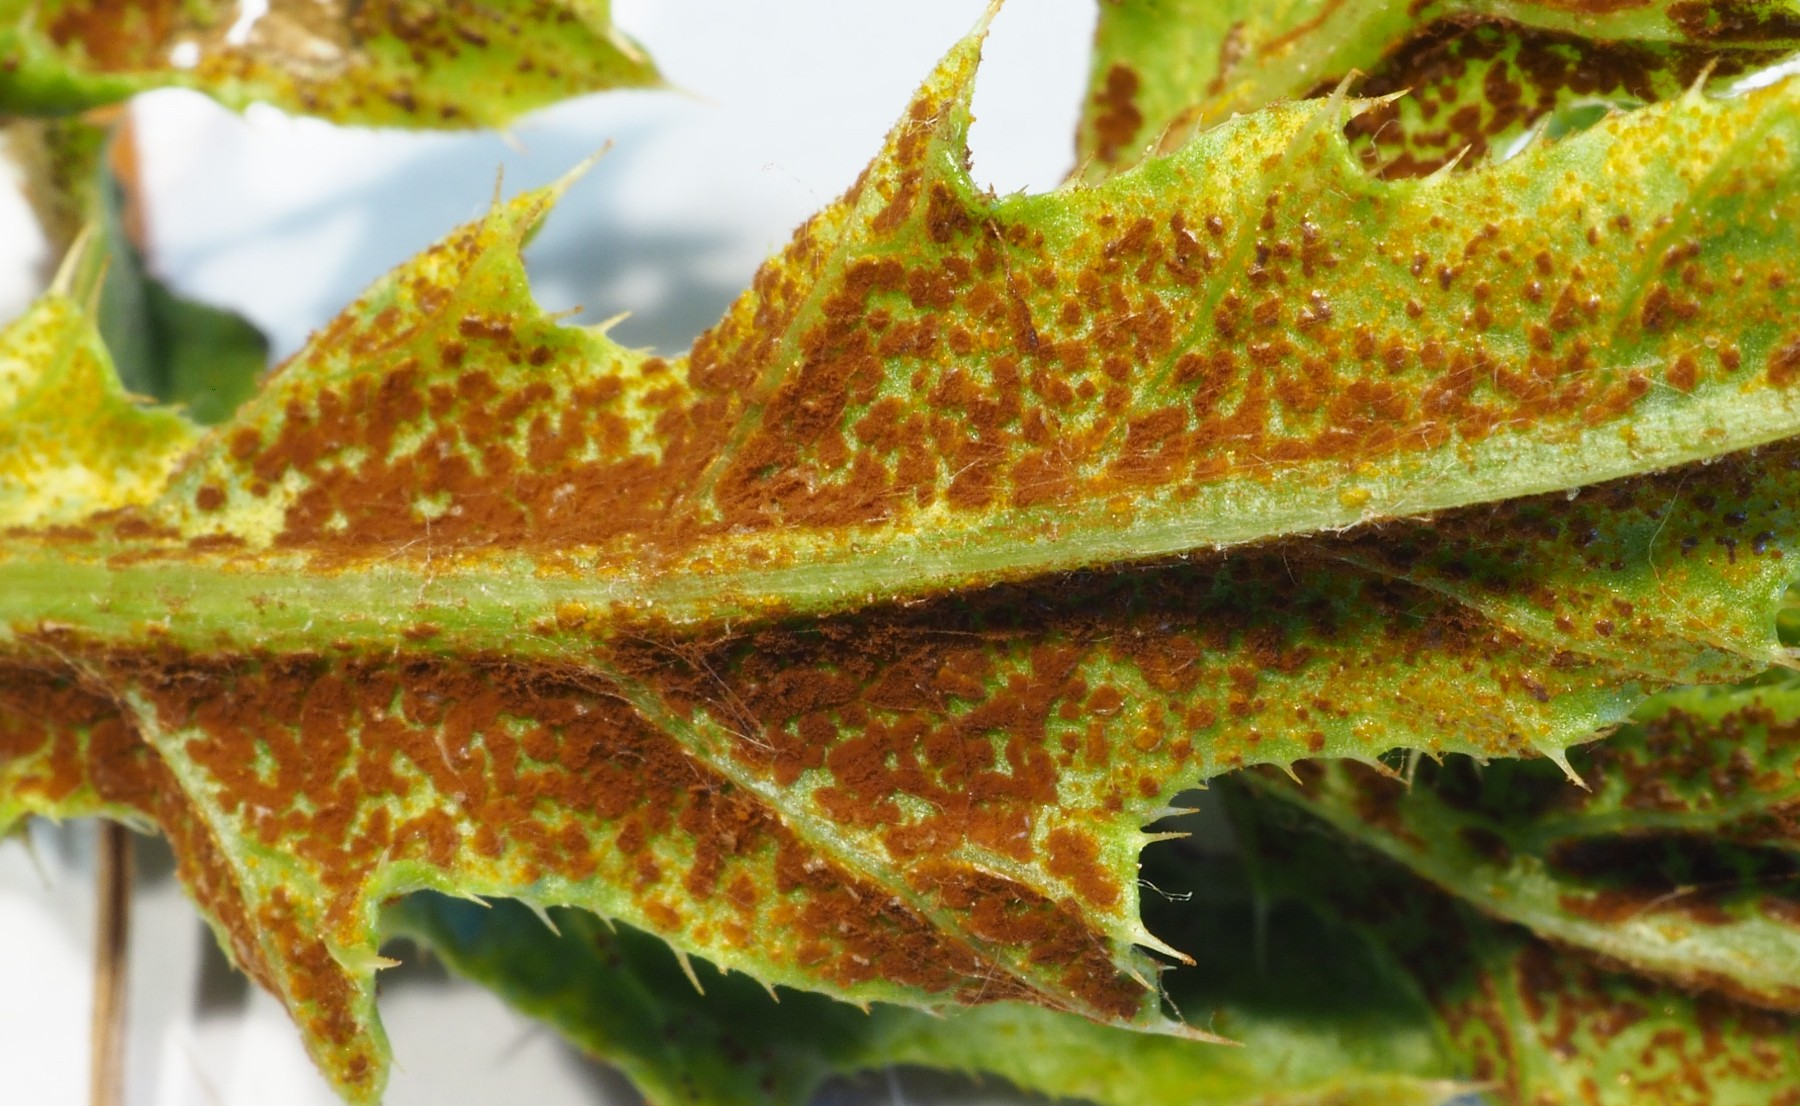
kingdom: Fungi
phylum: Basidiomycota
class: Pucciniomycetes
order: Pucciniales
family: Pucciniaceae
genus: Puccinia
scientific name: Puccinia suaveolens
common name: tidsel-tvecellerust
